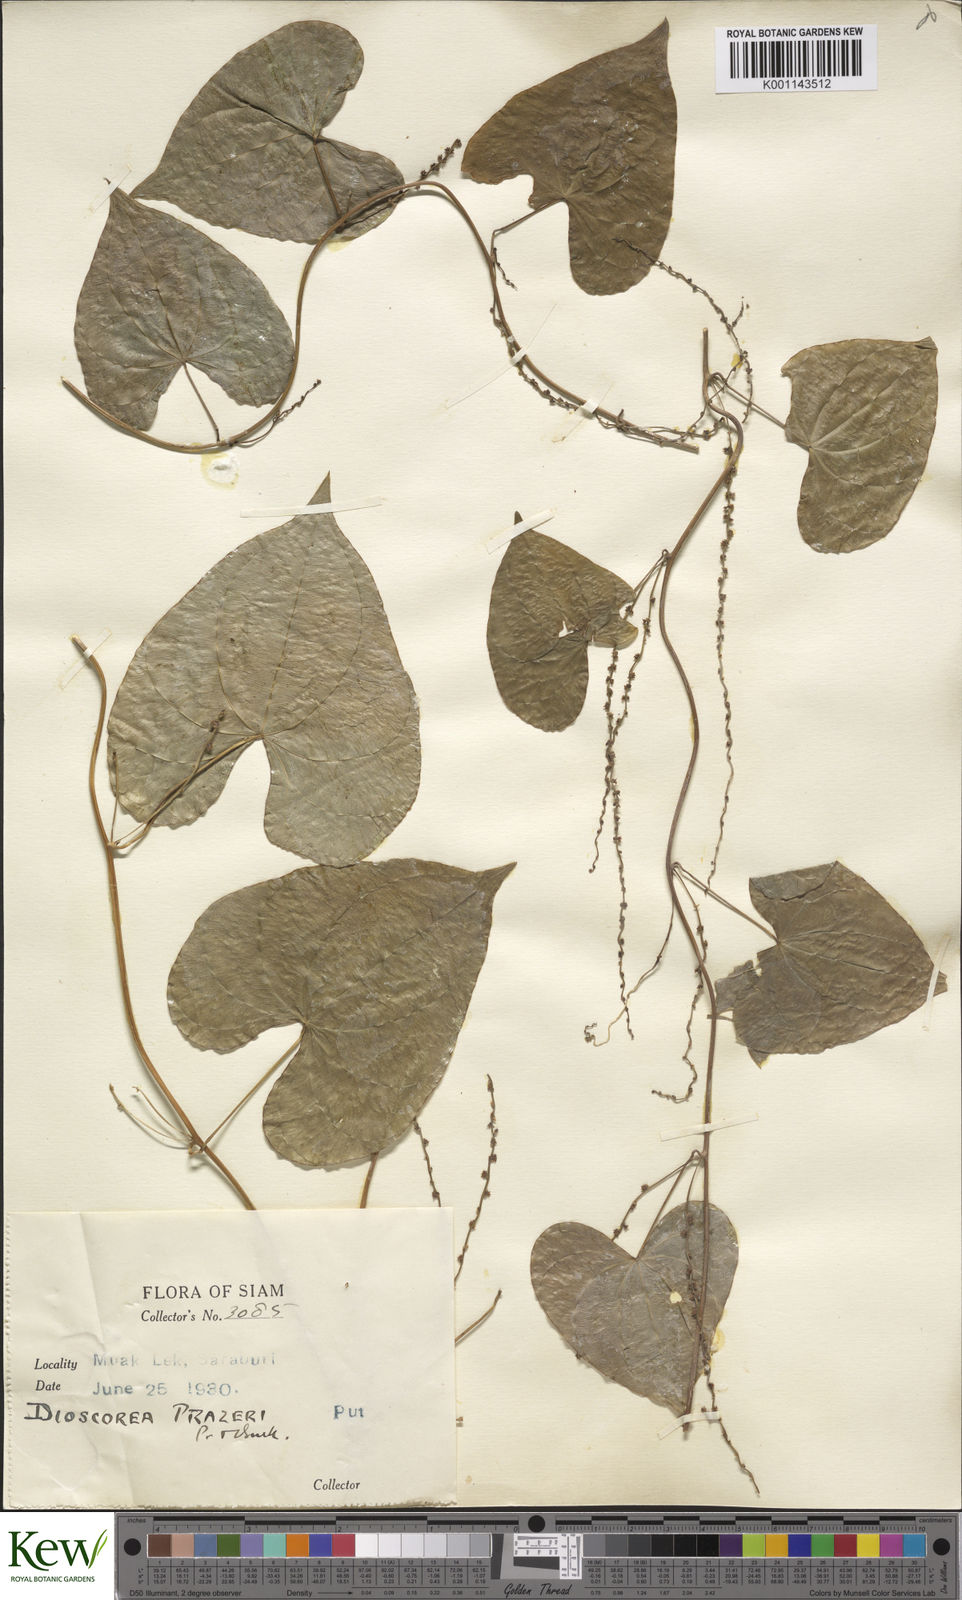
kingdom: Plantae
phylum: Tracheophyta
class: Liliopsida
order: Dioscoreales
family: Dioscoreaceae
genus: Dioscorea
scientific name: Dioscorea prazeri
